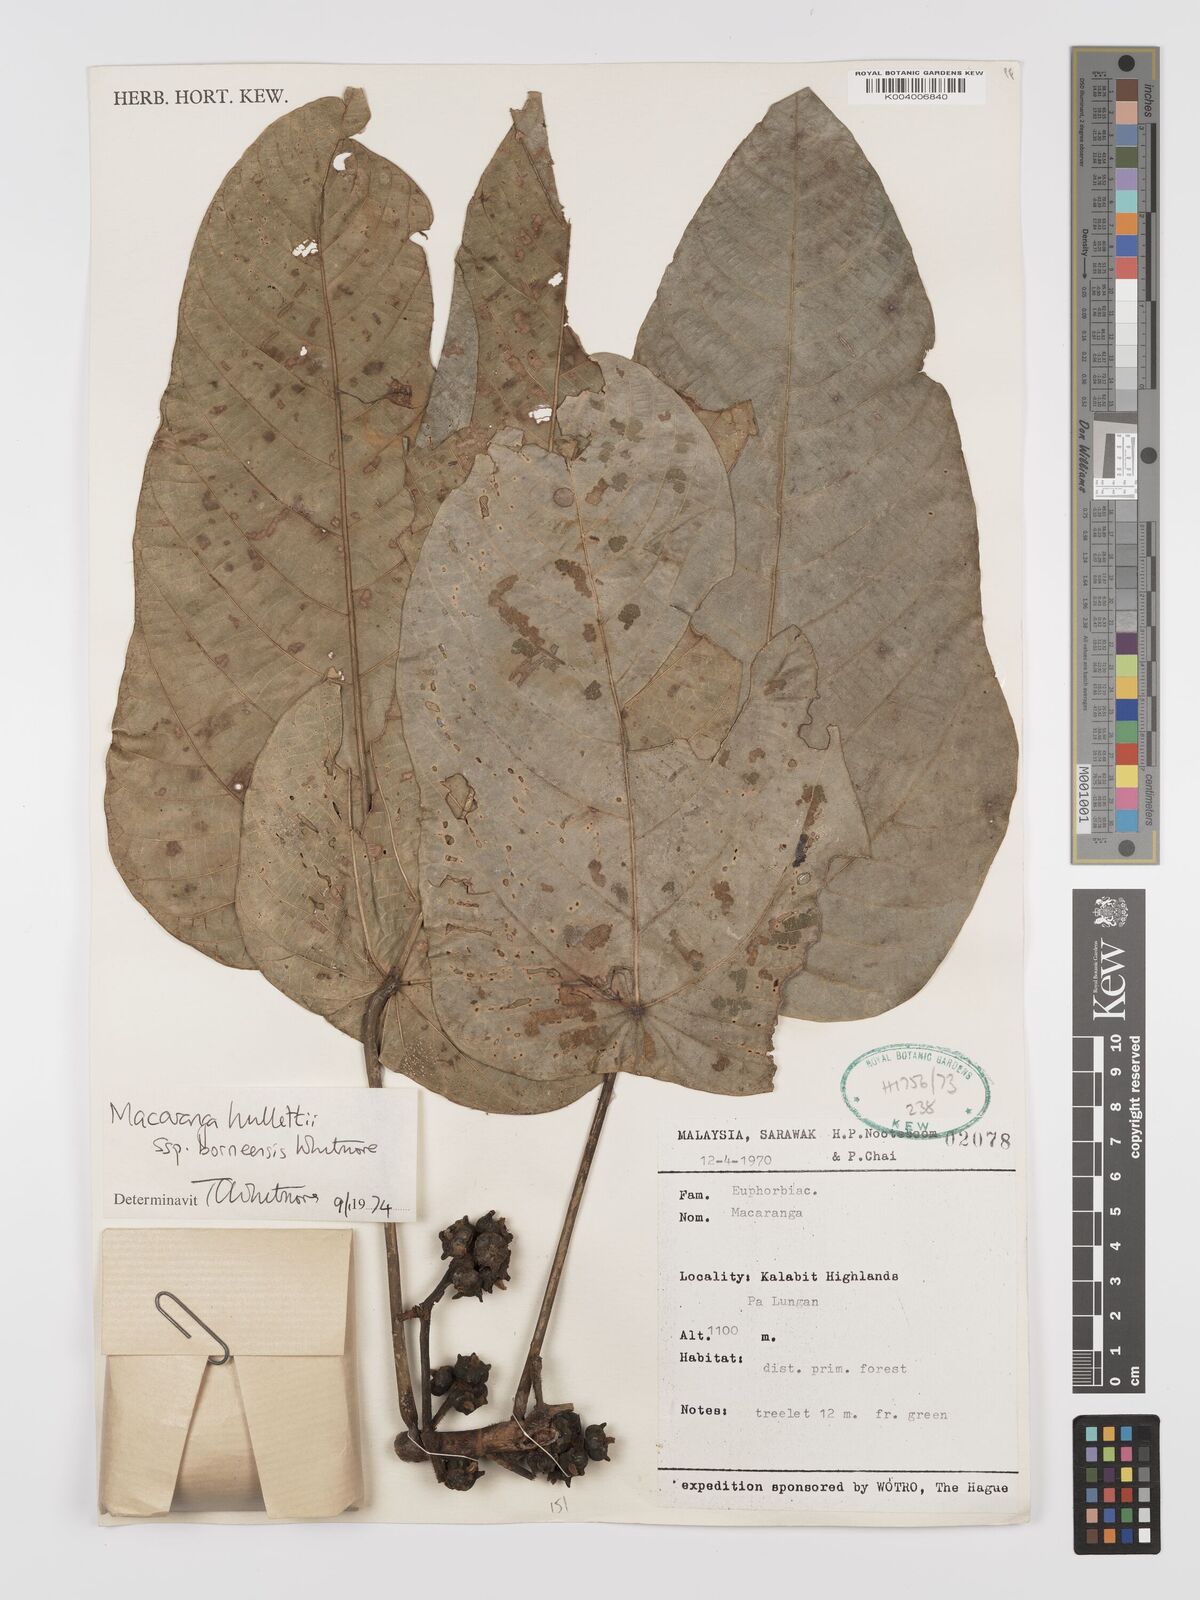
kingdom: Plantae
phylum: Tracheophyta
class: Magnoliopsida
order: Malpighiales
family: Euphorbiaceae
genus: Macaranga
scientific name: Macaranga hullettii
